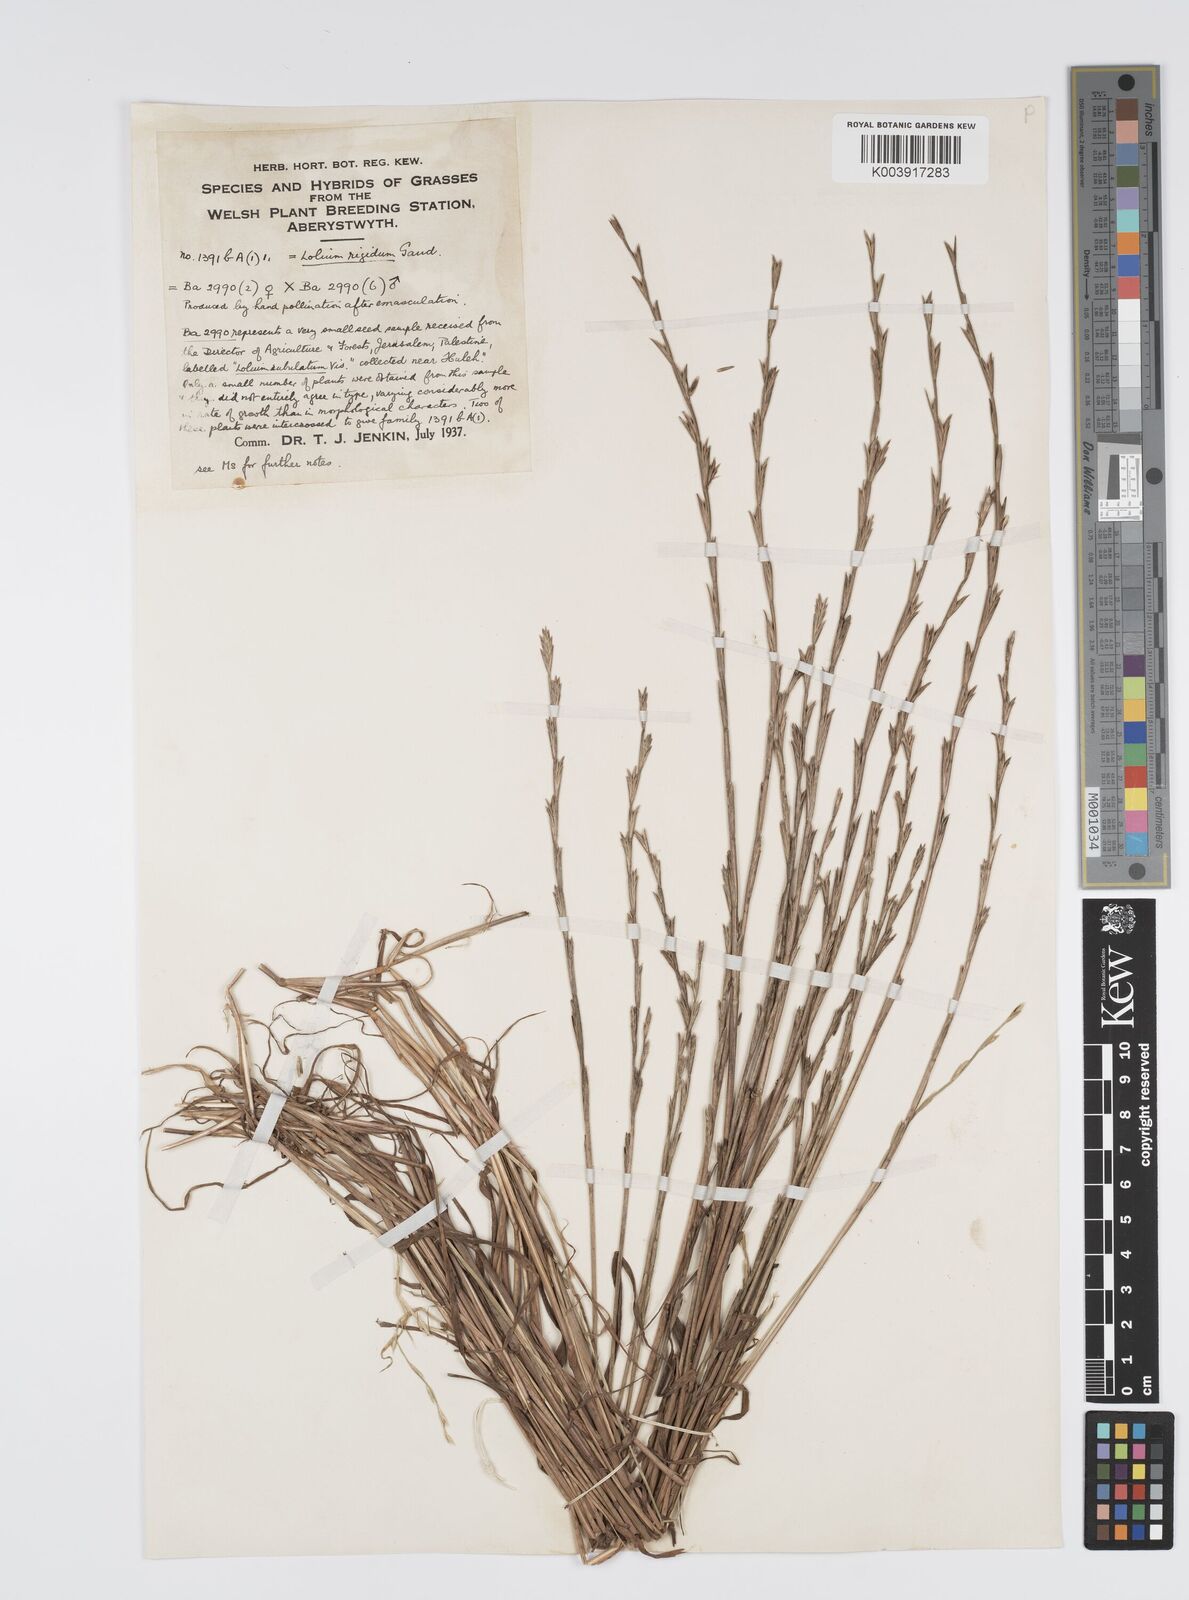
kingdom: Plantae
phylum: Tracheophyta
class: Liliopsida
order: Poales
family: Poaceae
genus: Lolium
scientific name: Lolium rigidum
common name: Wimmera ryegrass
